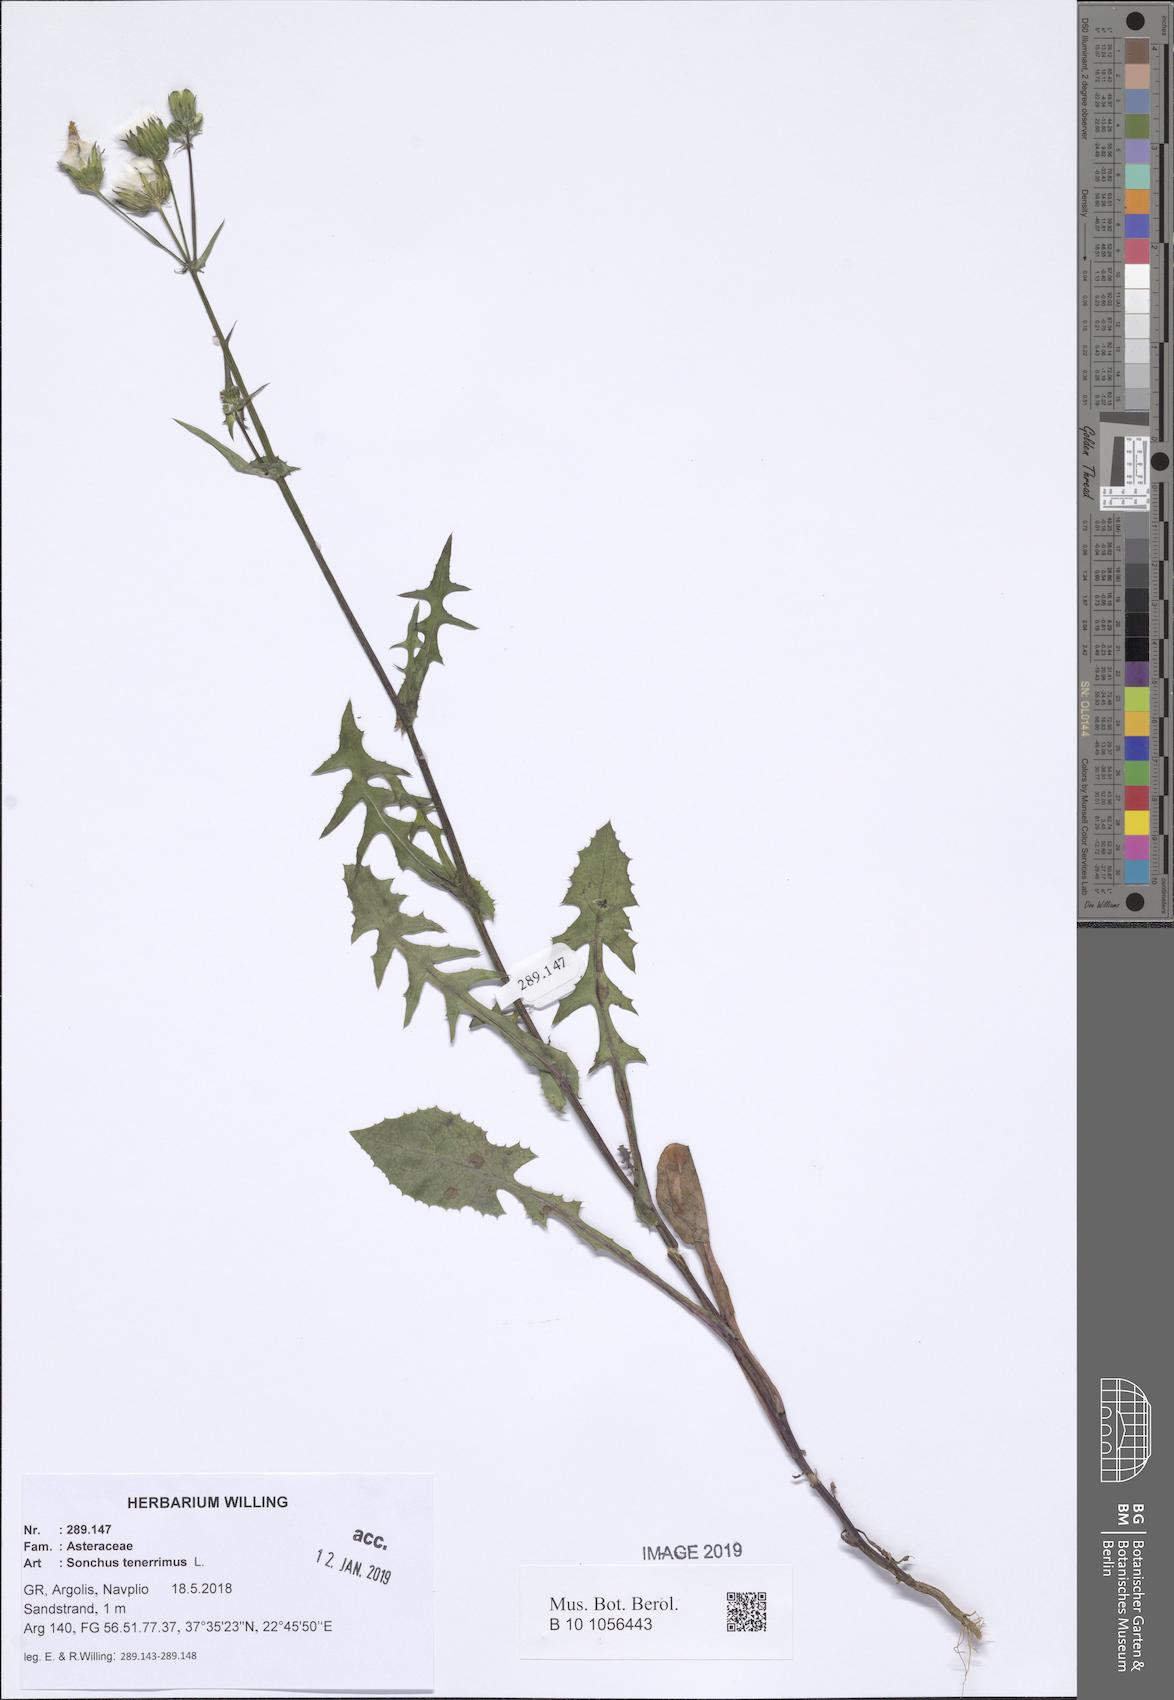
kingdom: Plantae
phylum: Tracheophyta
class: Magnoliopsida
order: Asterales
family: Asteraceae
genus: Sonchus
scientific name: Sonchus tenerrimus
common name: Clammy sowthistle
